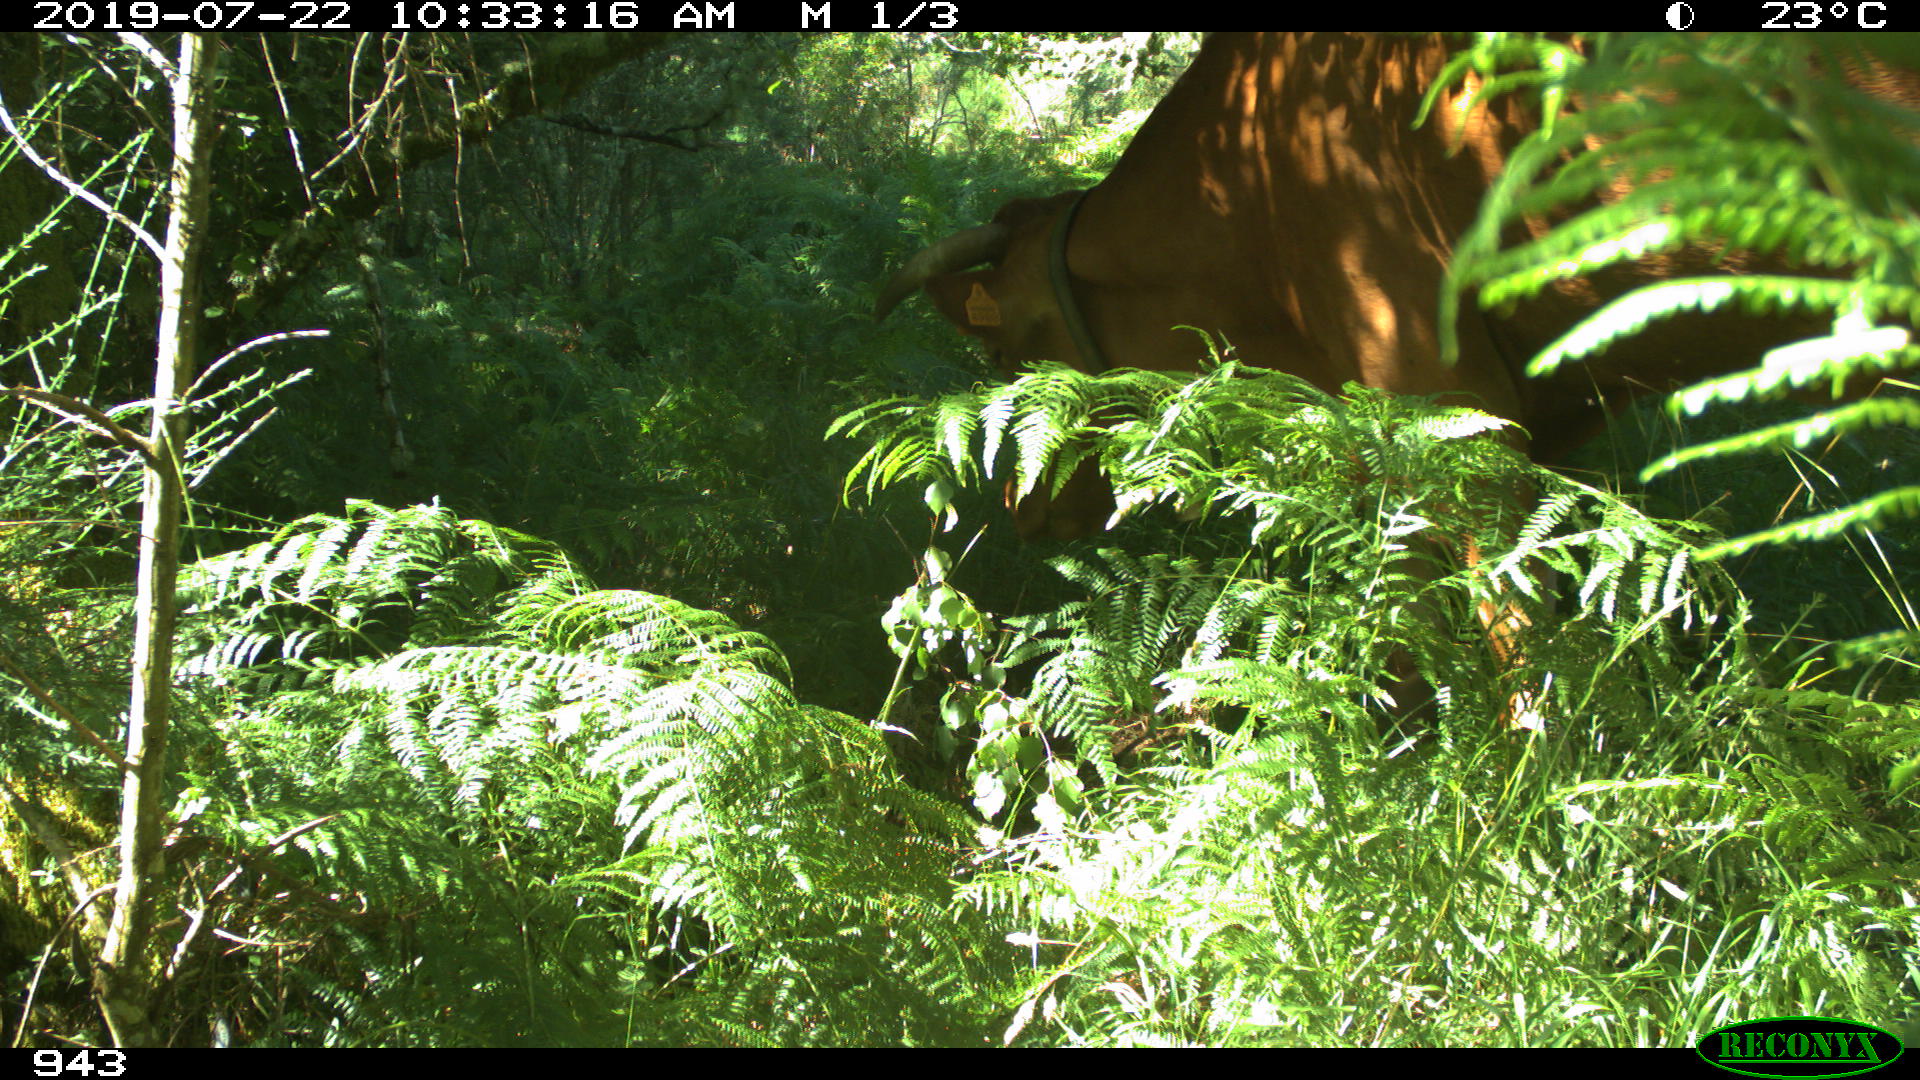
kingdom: Animalia
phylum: Chordata
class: Mammalia
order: Artiodactyla
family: Bovidae
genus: Bos
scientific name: Bos taurus
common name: Domesticated cattle
